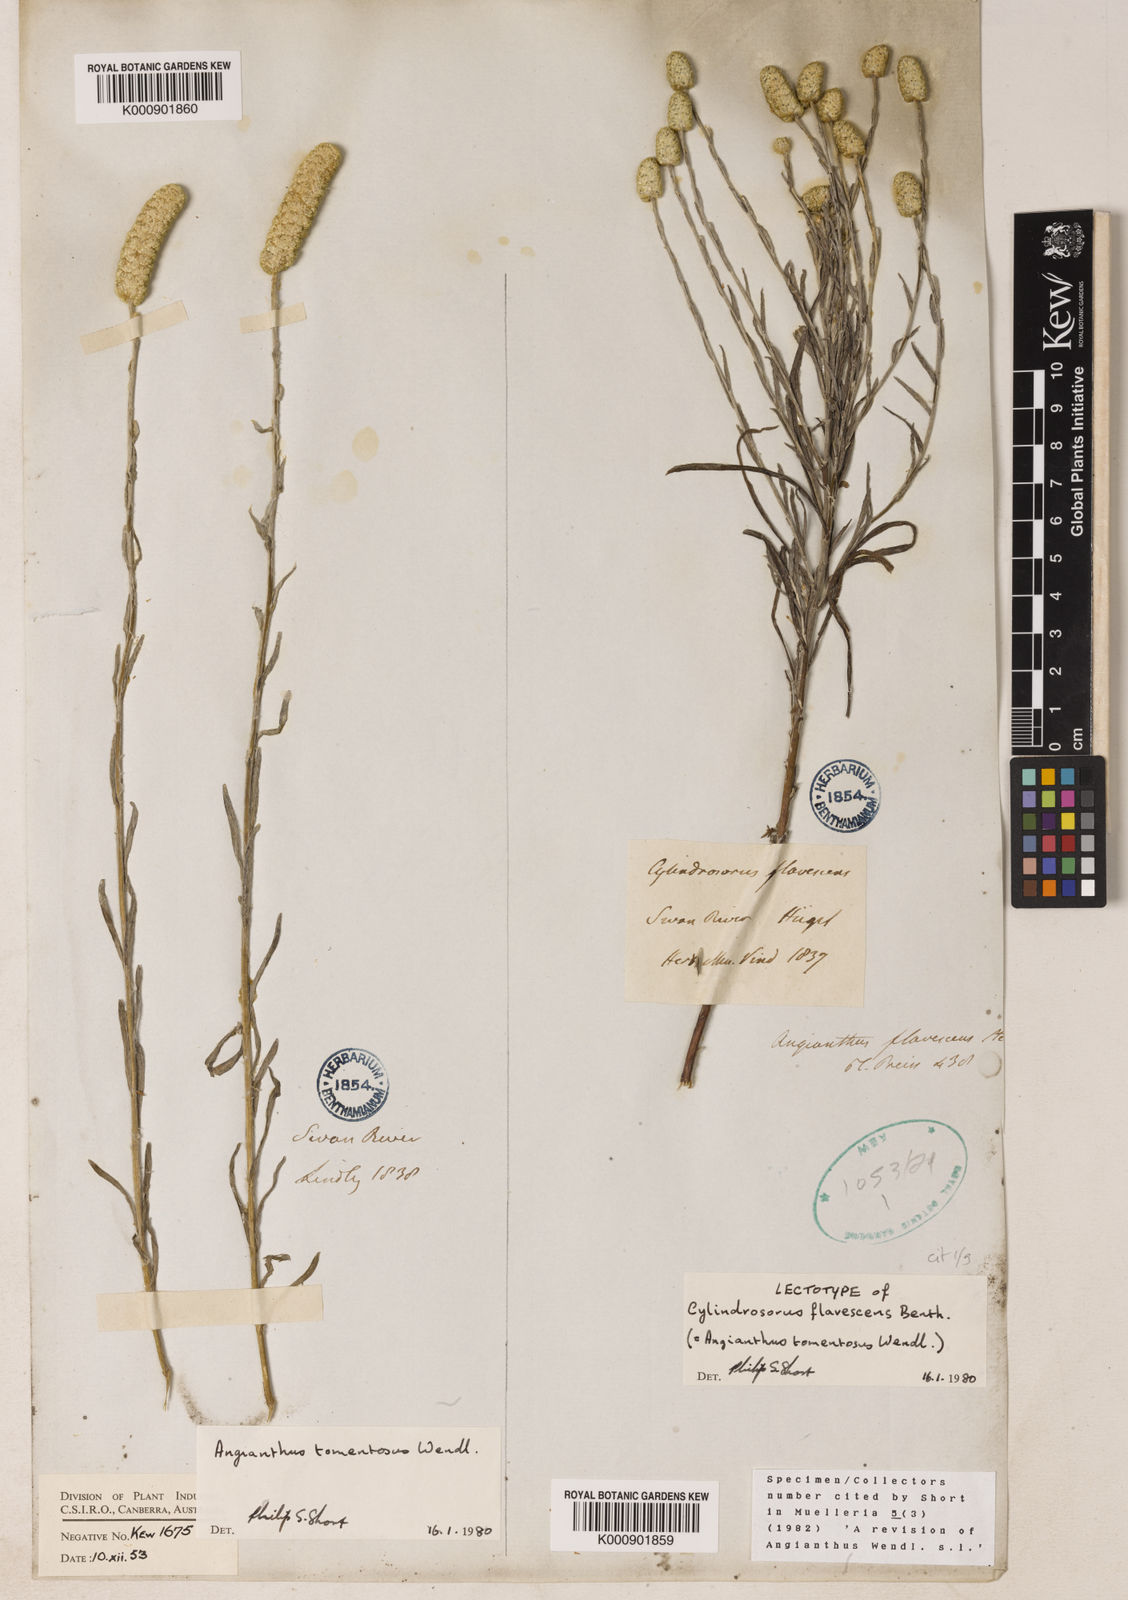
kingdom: Plantae
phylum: Tracheophyta
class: Magnoliopsida
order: Asterales
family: Asteraceae
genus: Siloxerus
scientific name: Siloxerus tomentosus
